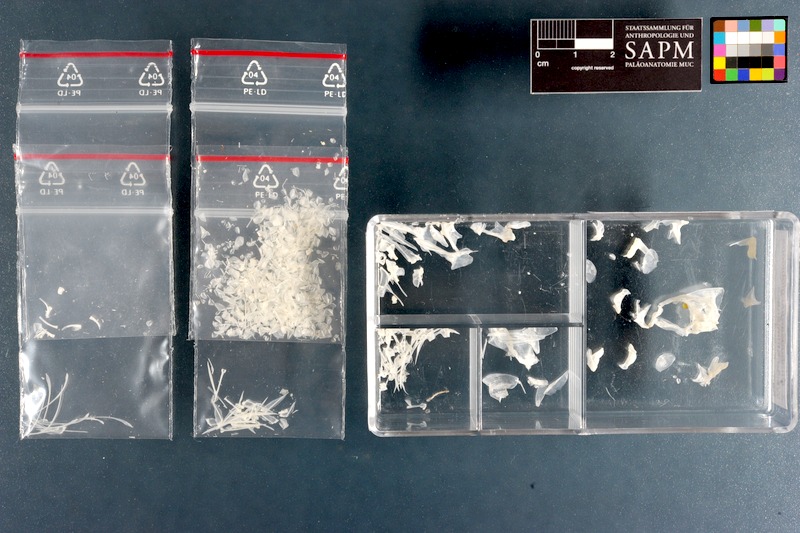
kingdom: Animalia
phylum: Chordata
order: Perciformes
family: Sparidae
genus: Rhabdosargus
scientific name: Rhabdosargus globiceps
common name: White stumpnose
